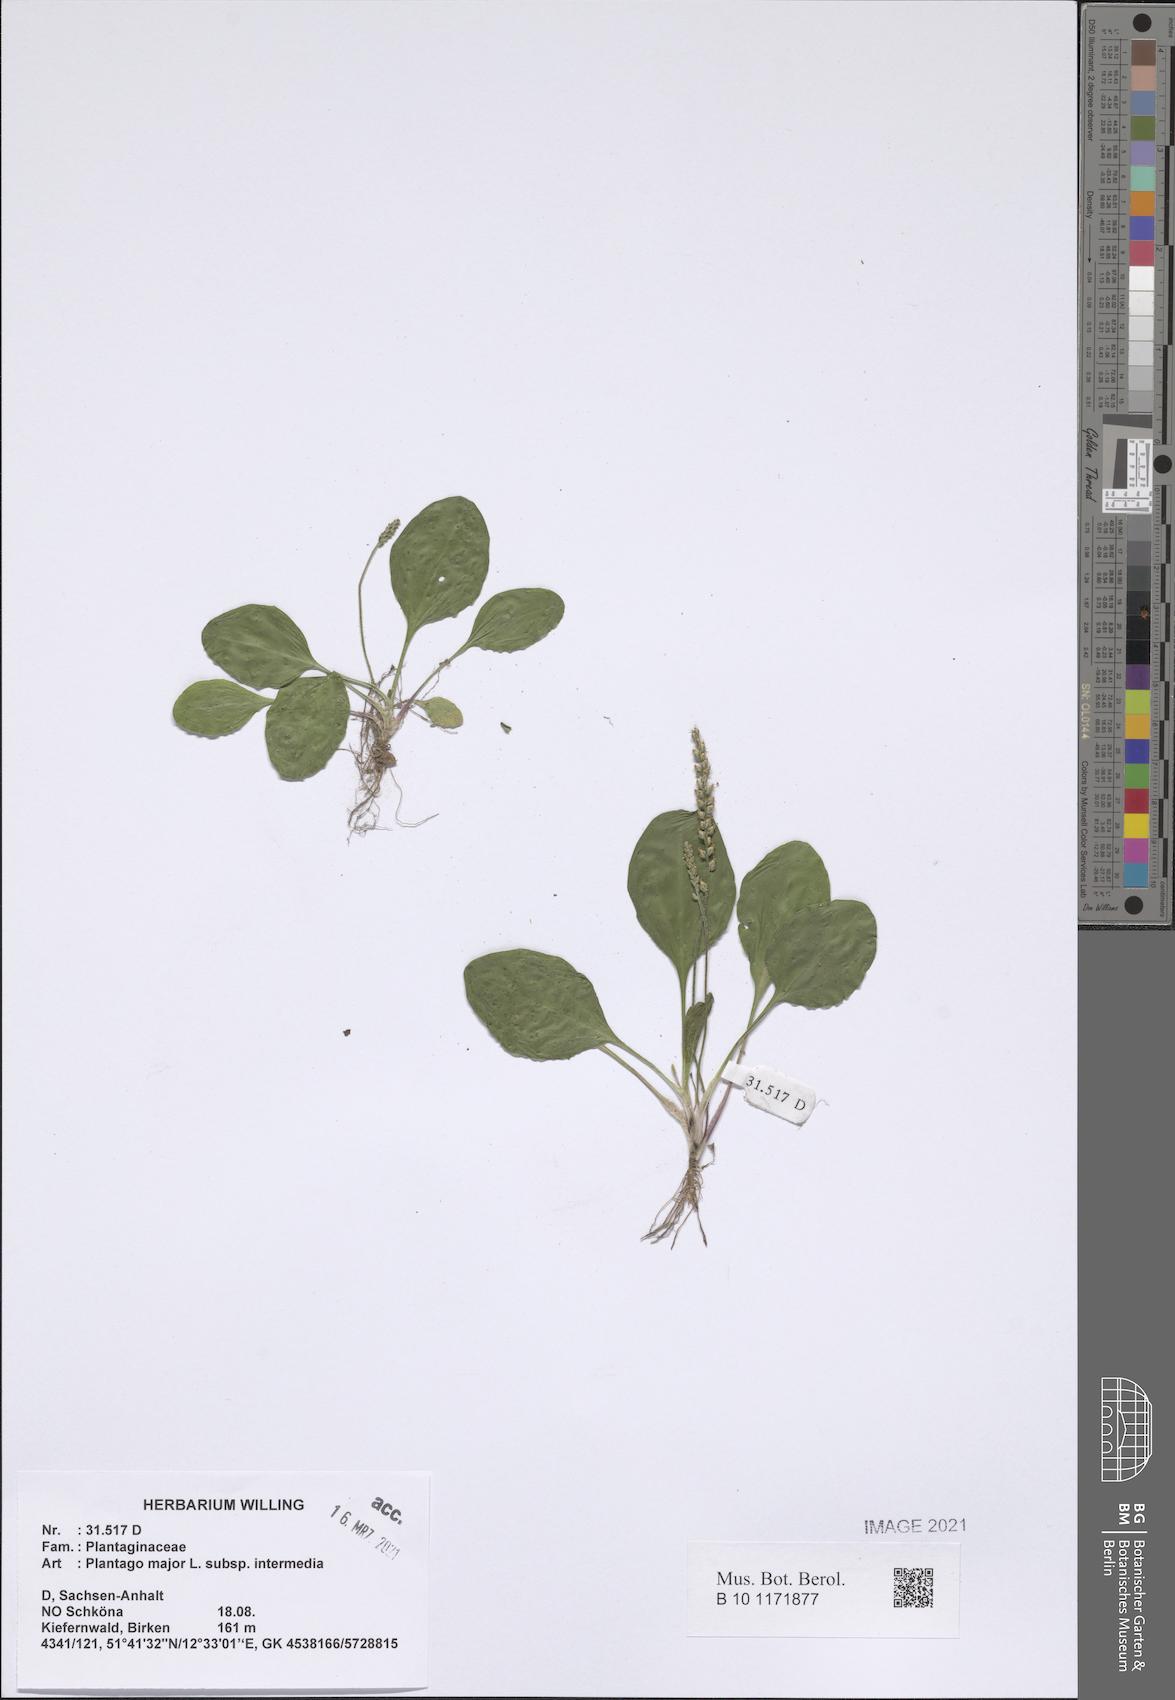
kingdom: Plantae
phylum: Tracheophyta
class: Magnoliopsida
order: Lamiales
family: Plantaginaceae
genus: Plantago
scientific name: Plantago uliginosa
